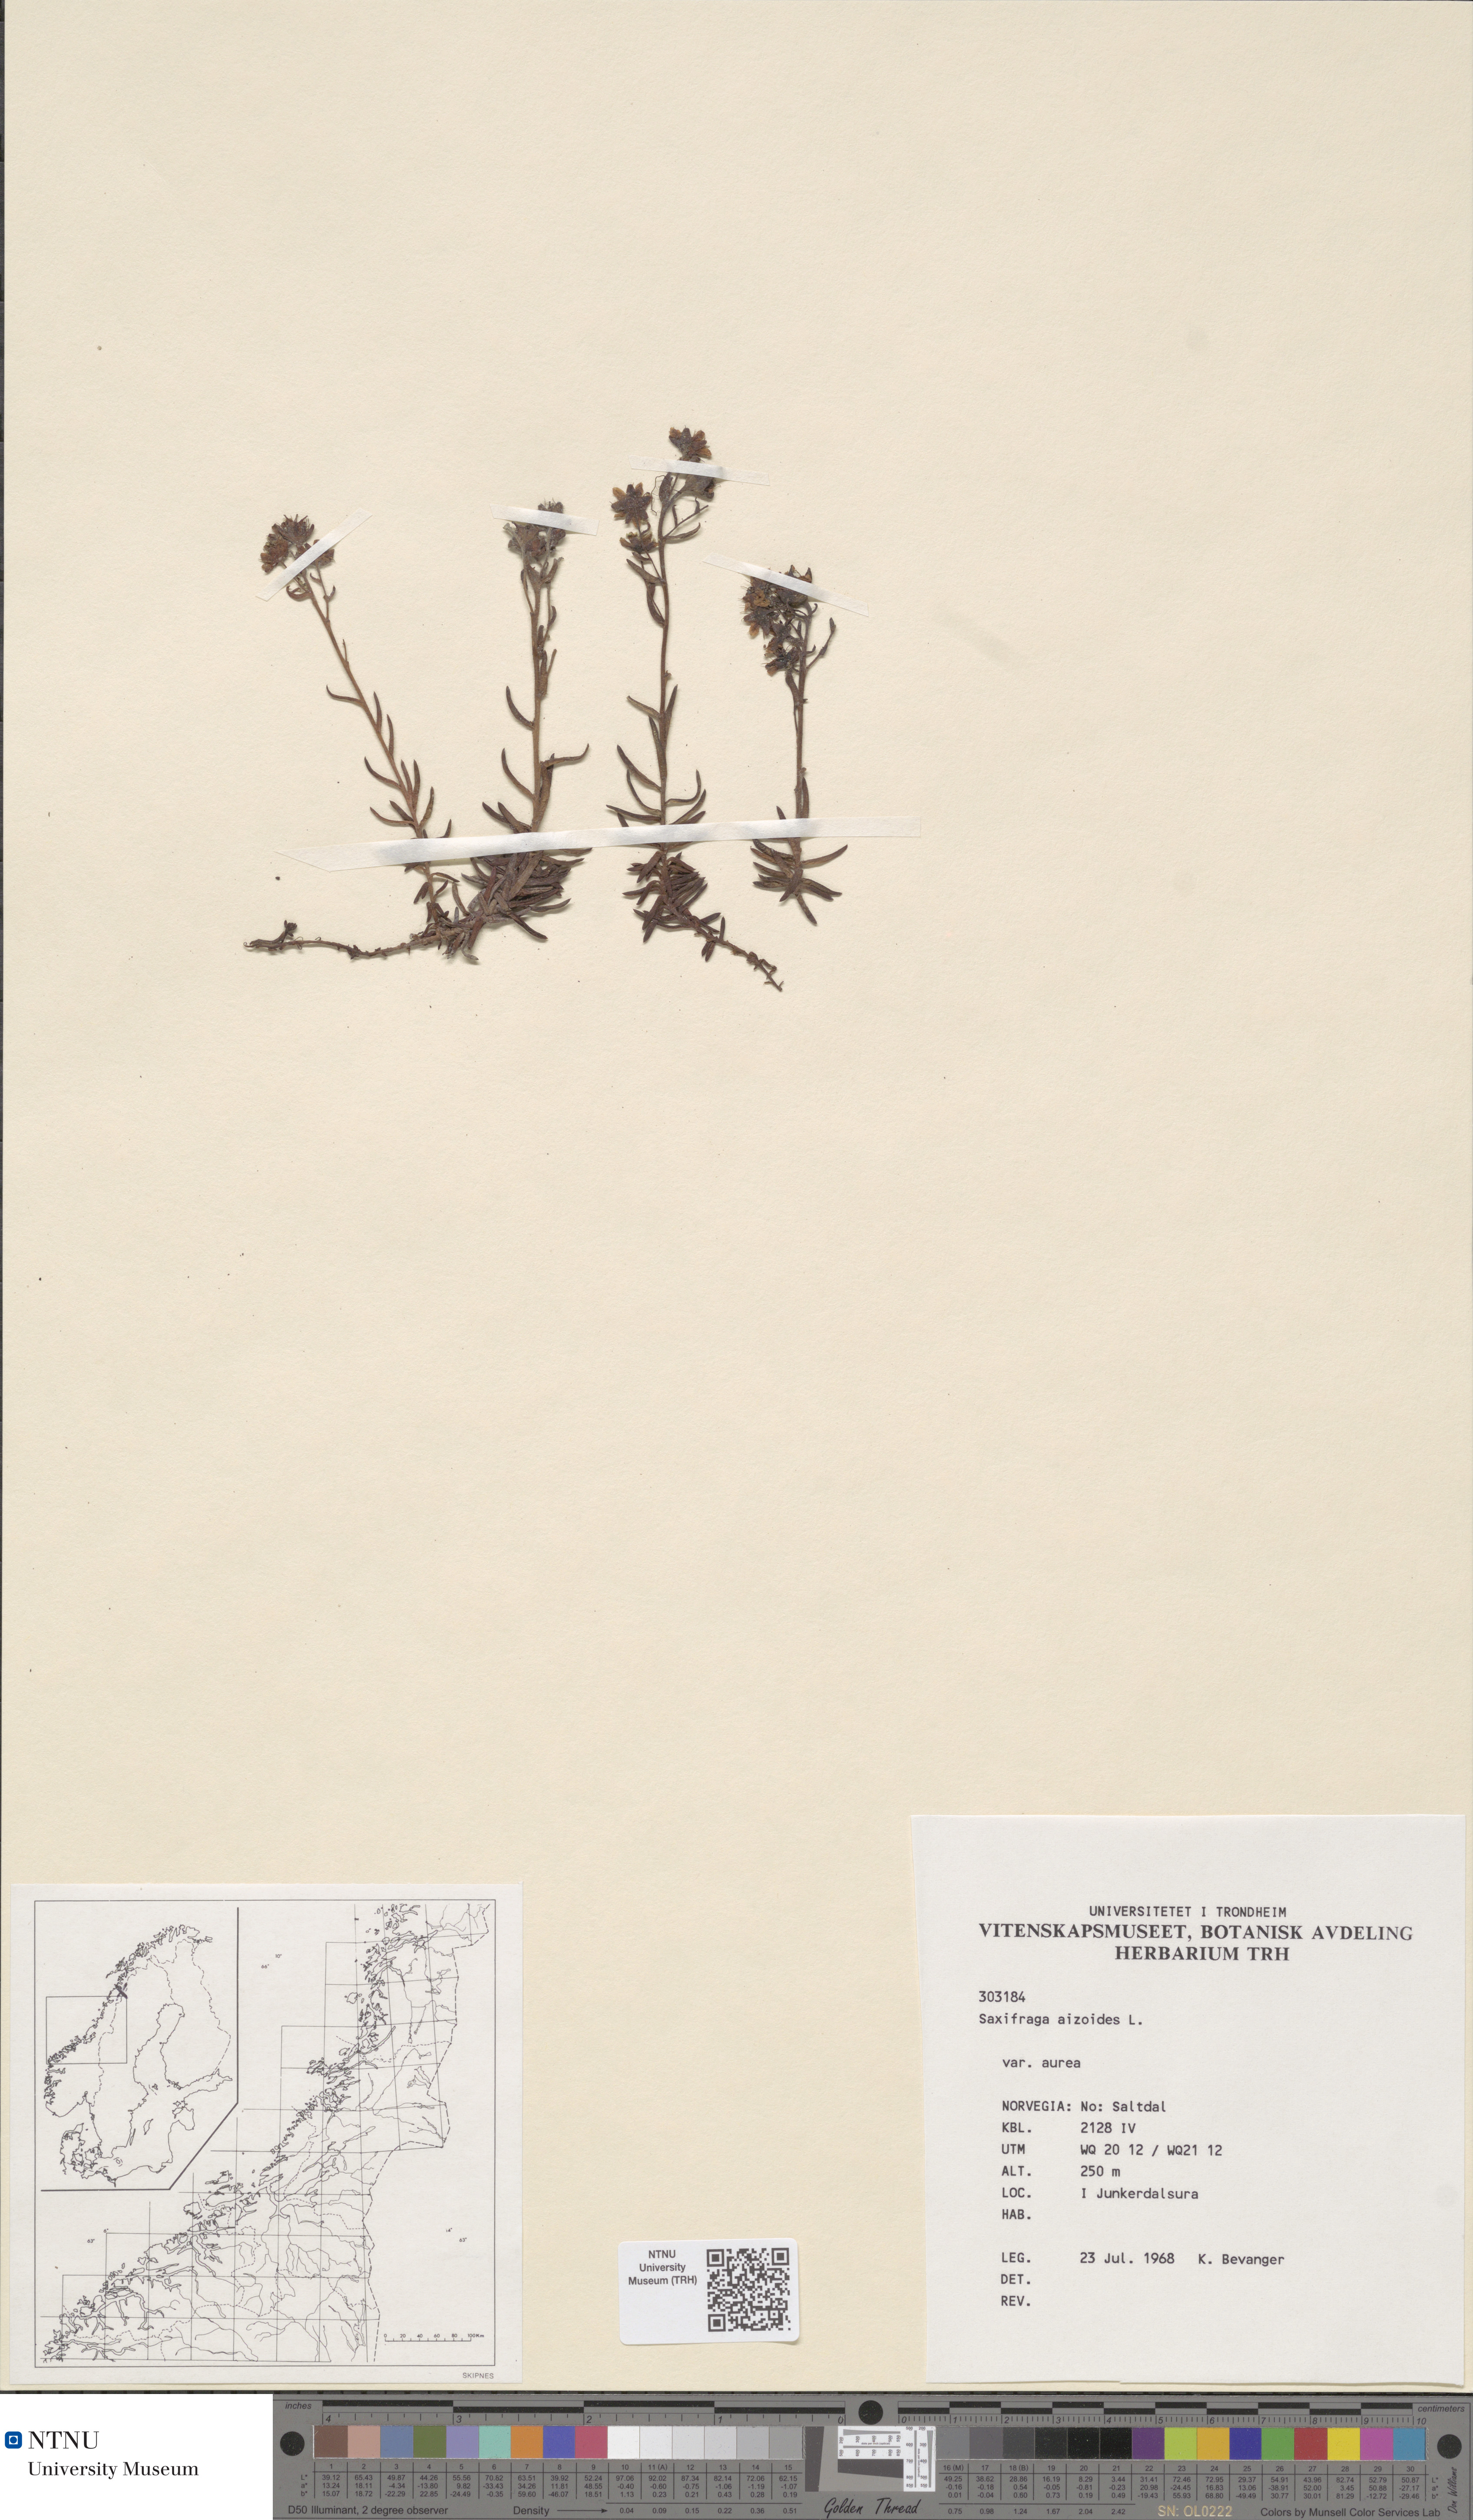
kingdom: Plantae
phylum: Tracheophyta
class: Magnoliopsida
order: Saxifragales
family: Saxifragaceae
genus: Saxifraga
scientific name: Saxifraga aizoides
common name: Yellow mountain saxifrage
